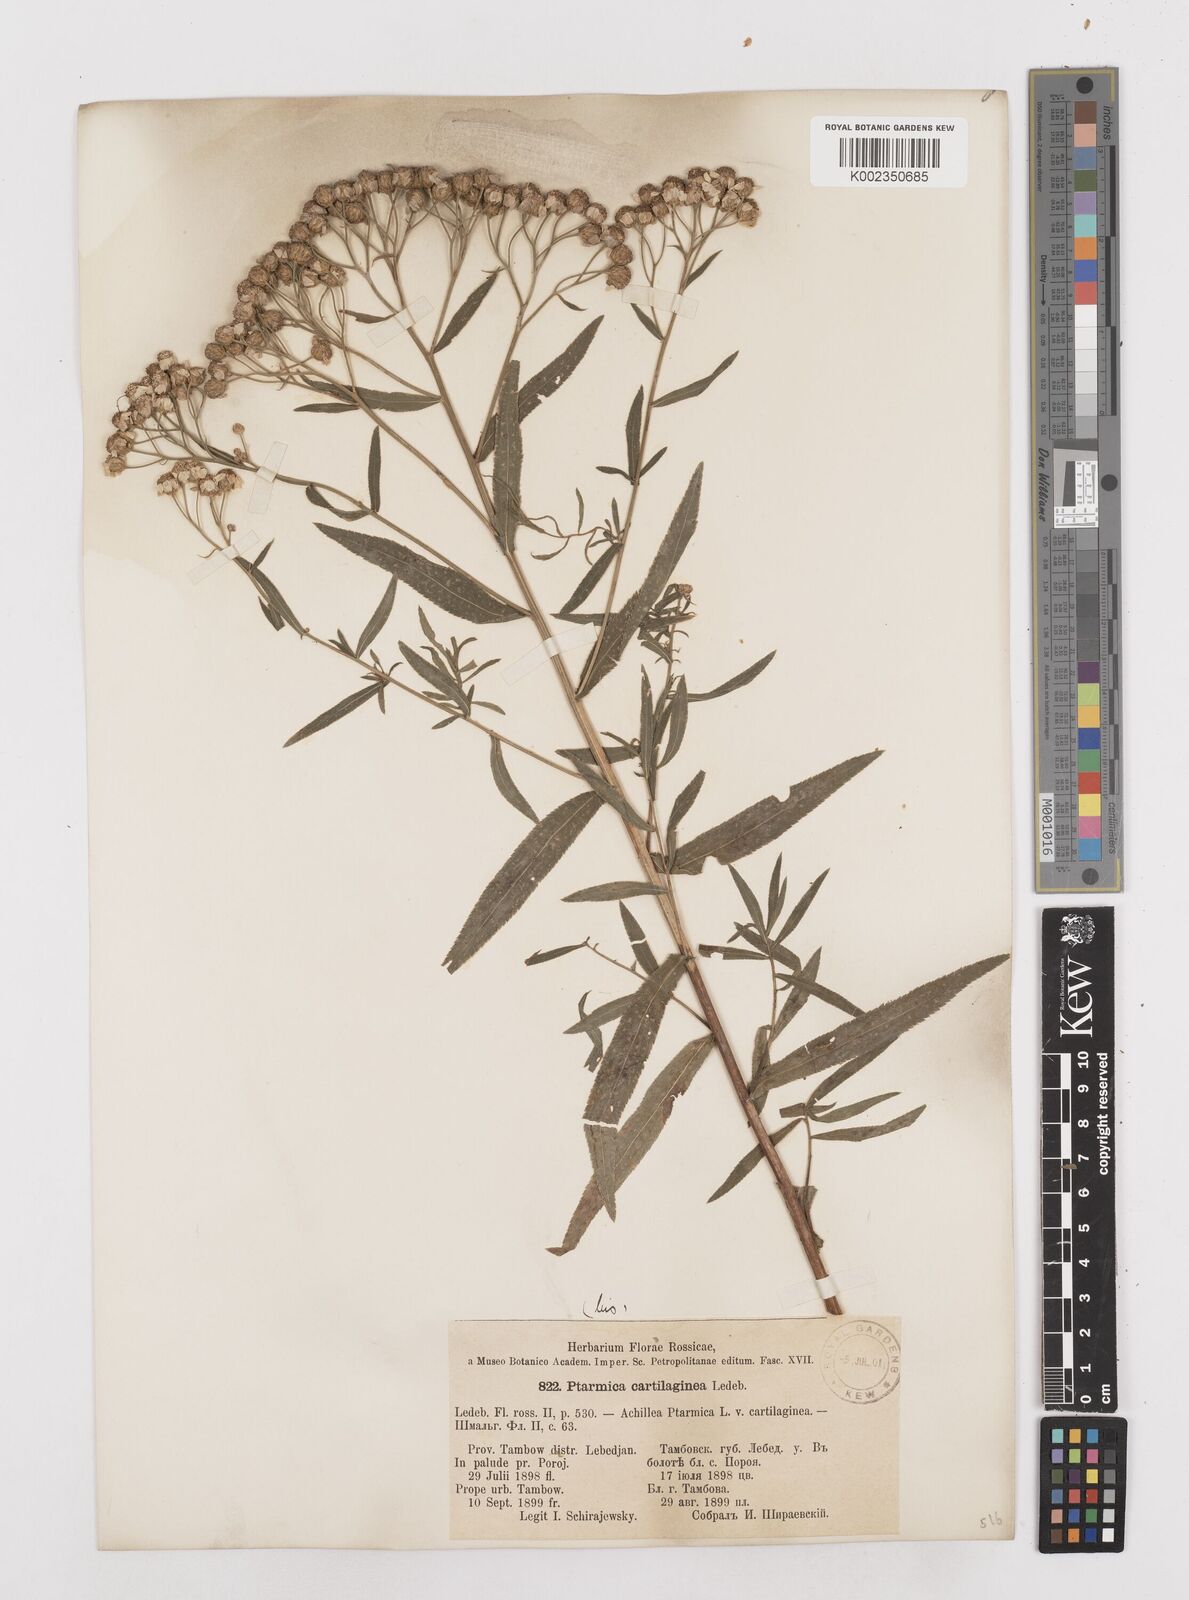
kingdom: Plantae
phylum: Tracheophyta
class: Magnoliopsida
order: Asterales
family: Asteraceae
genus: Achillea
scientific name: Achillea salicifolia
